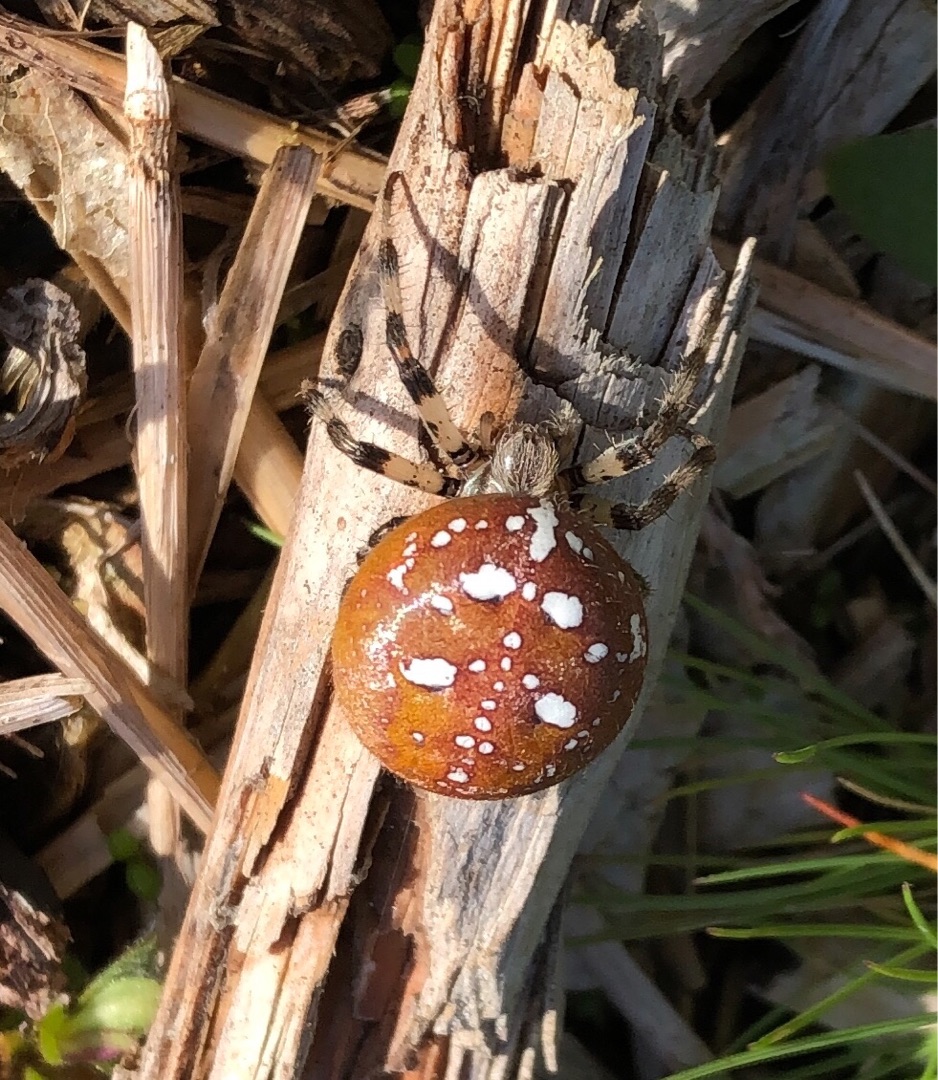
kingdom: Animalia
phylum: Arthropoda
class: Arachnida
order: Araneae
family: Araneidae
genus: Araneus
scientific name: Araneus quadratus
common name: Kvadratedderkop
